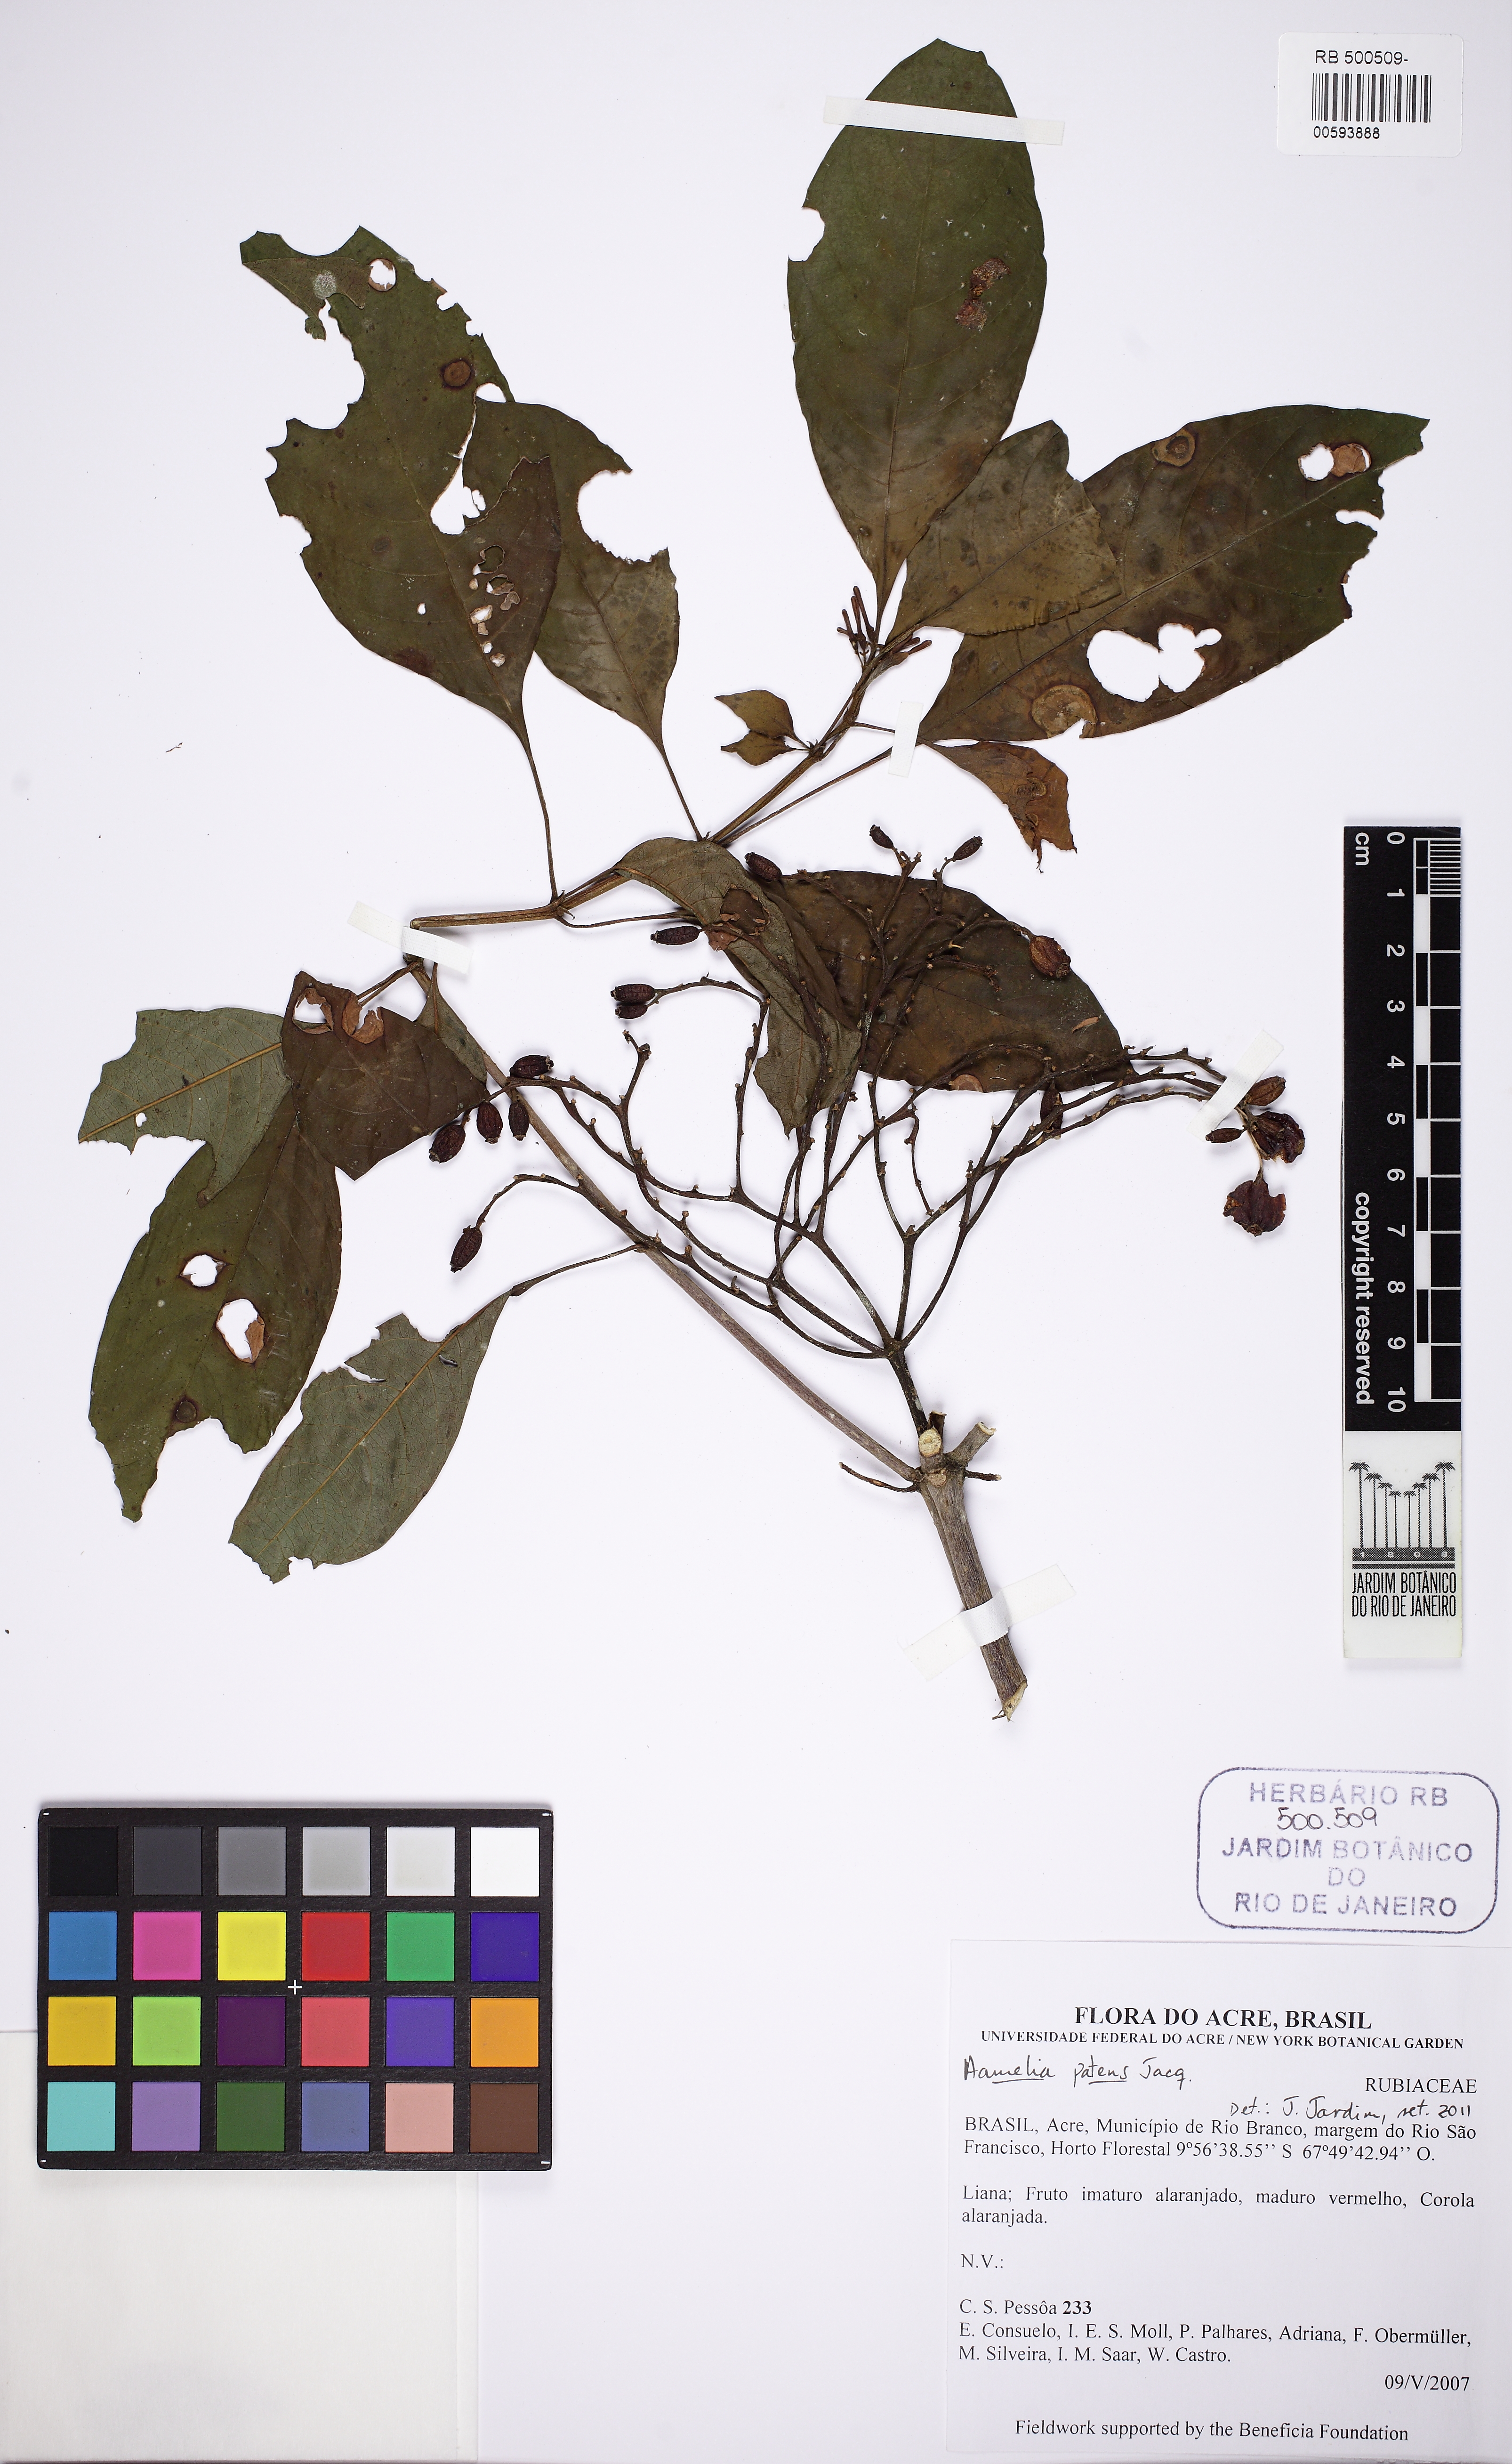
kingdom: Plantae
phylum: Tracheophyta
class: Magnoliopsida
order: Gentianales
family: Rubiaceae
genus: Hamelia
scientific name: Hamelia patens
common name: Redhead
